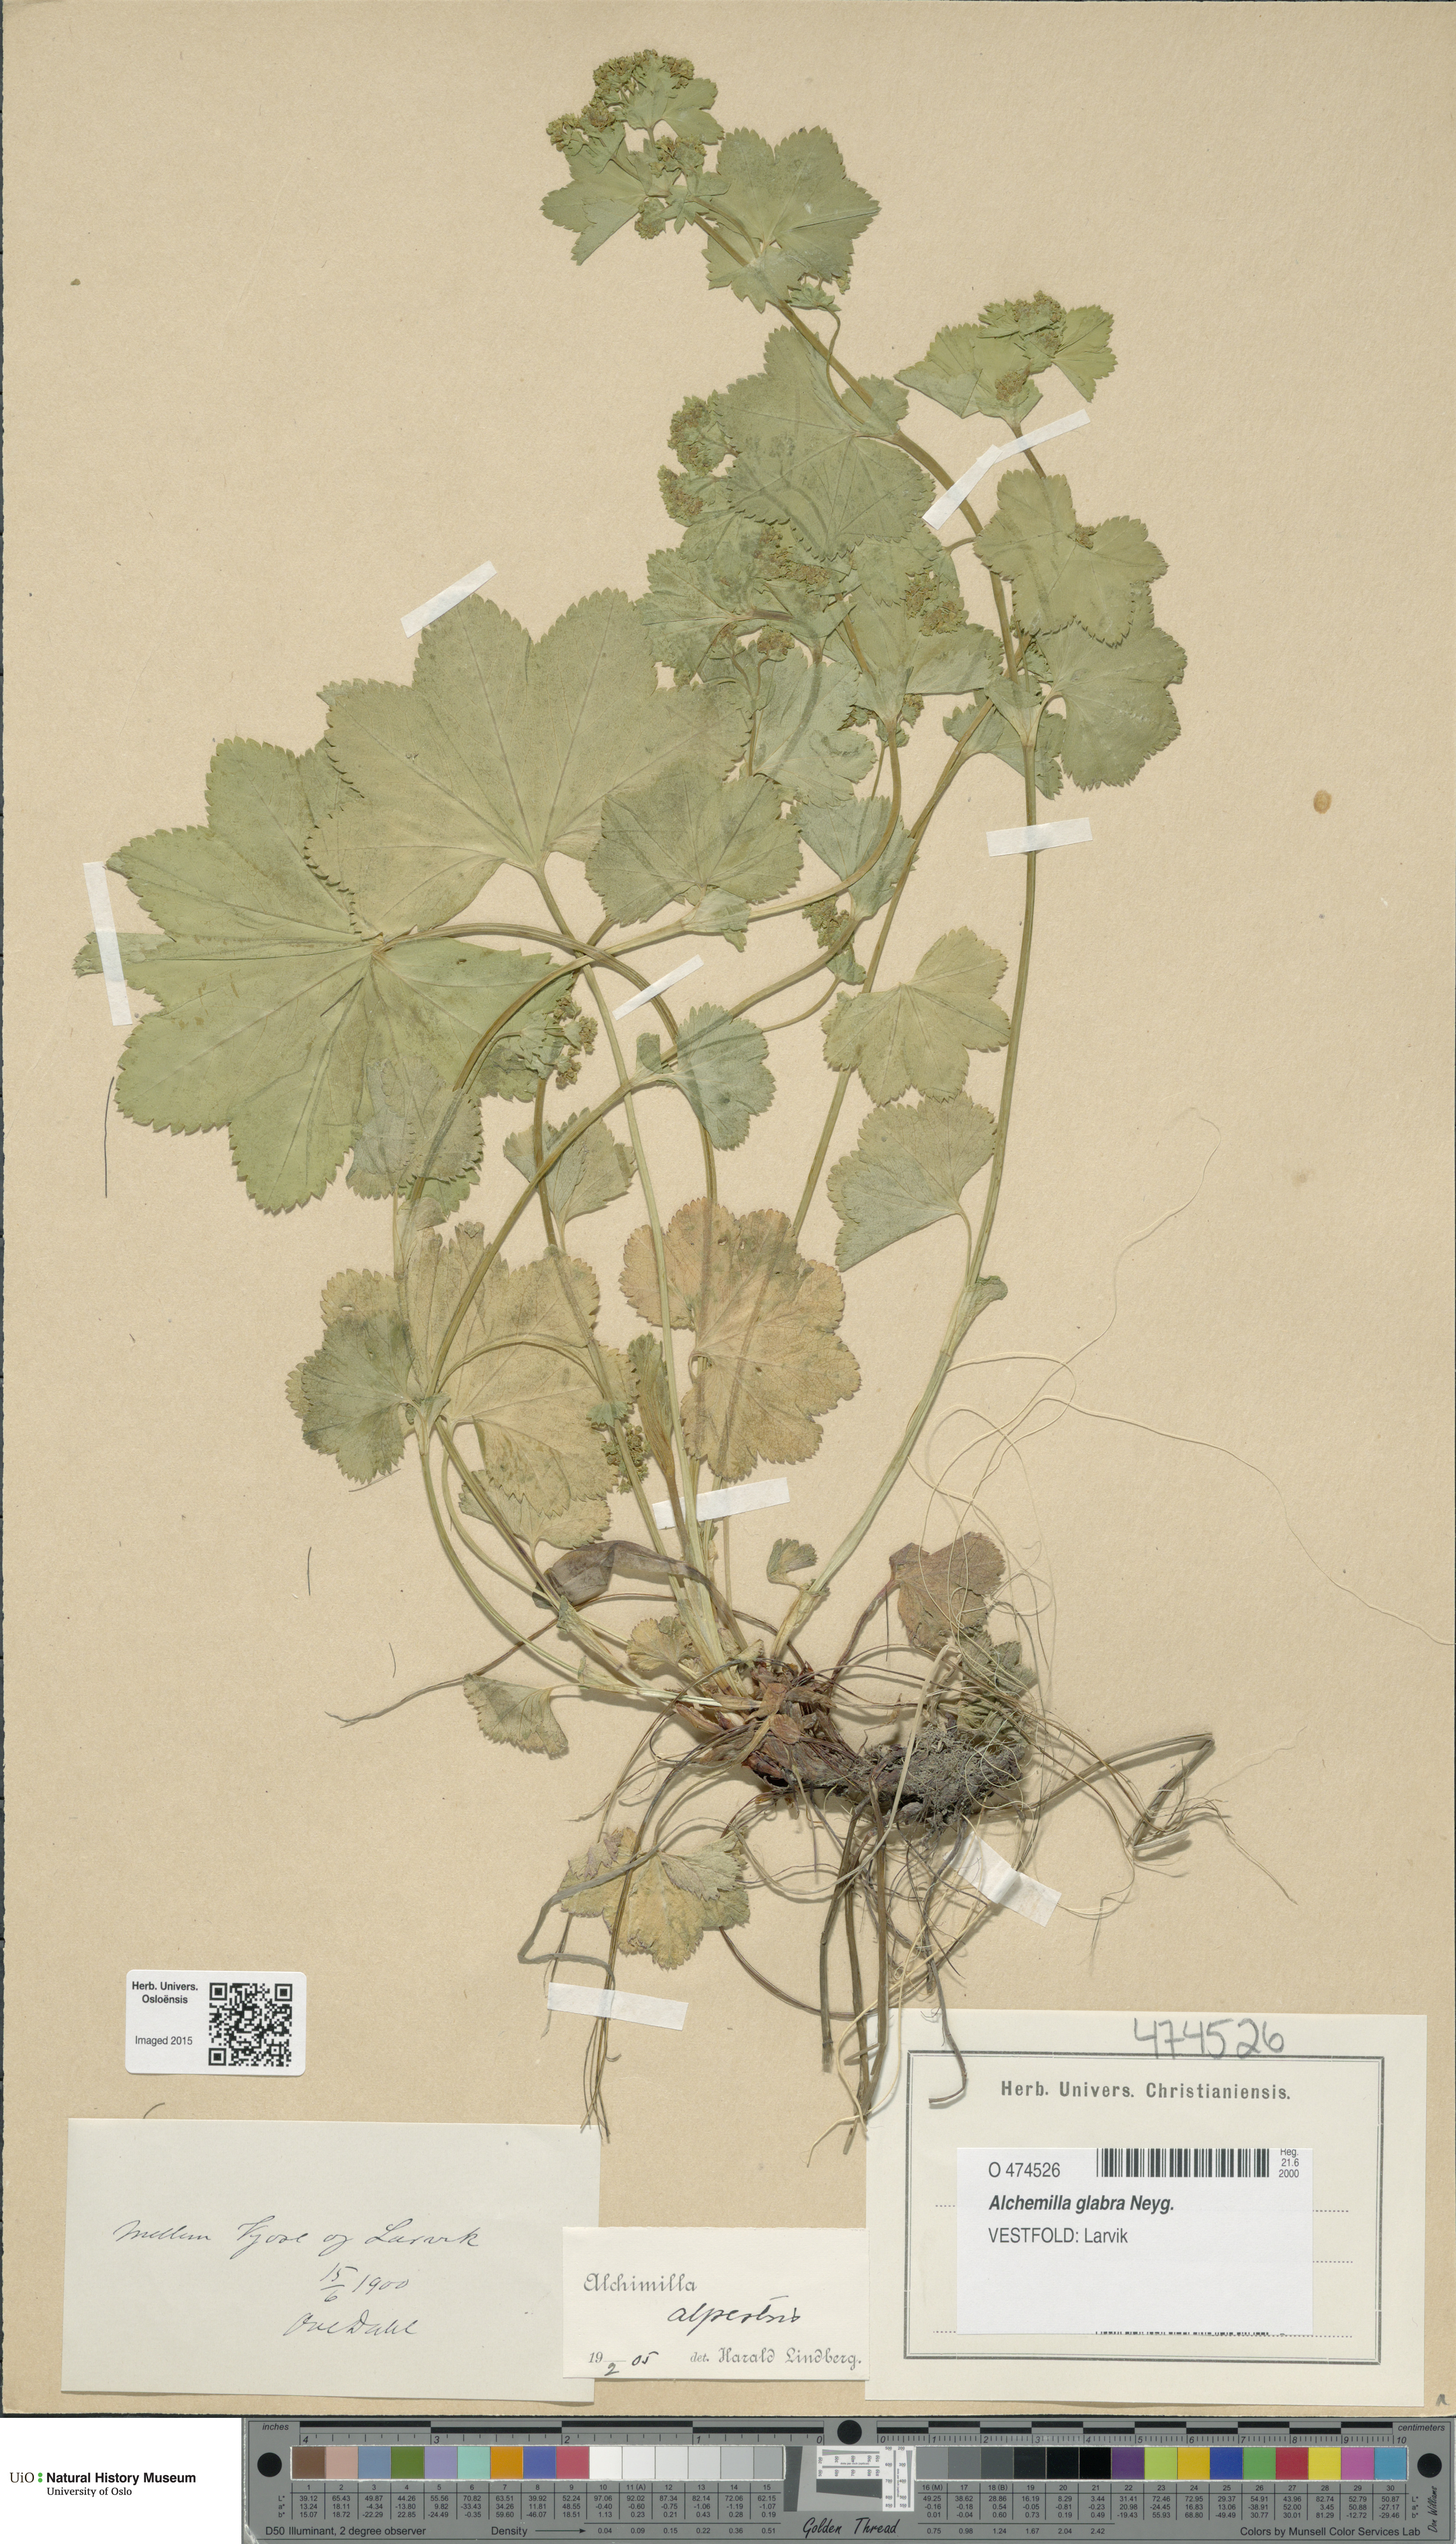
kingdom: Plantae
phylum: Tracheophyta
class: Magnoliopsida
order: Rosales
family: Rosaceae
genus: Alchemilla
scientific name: Alchemilla glabra
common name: Smooth lady's-mantle
